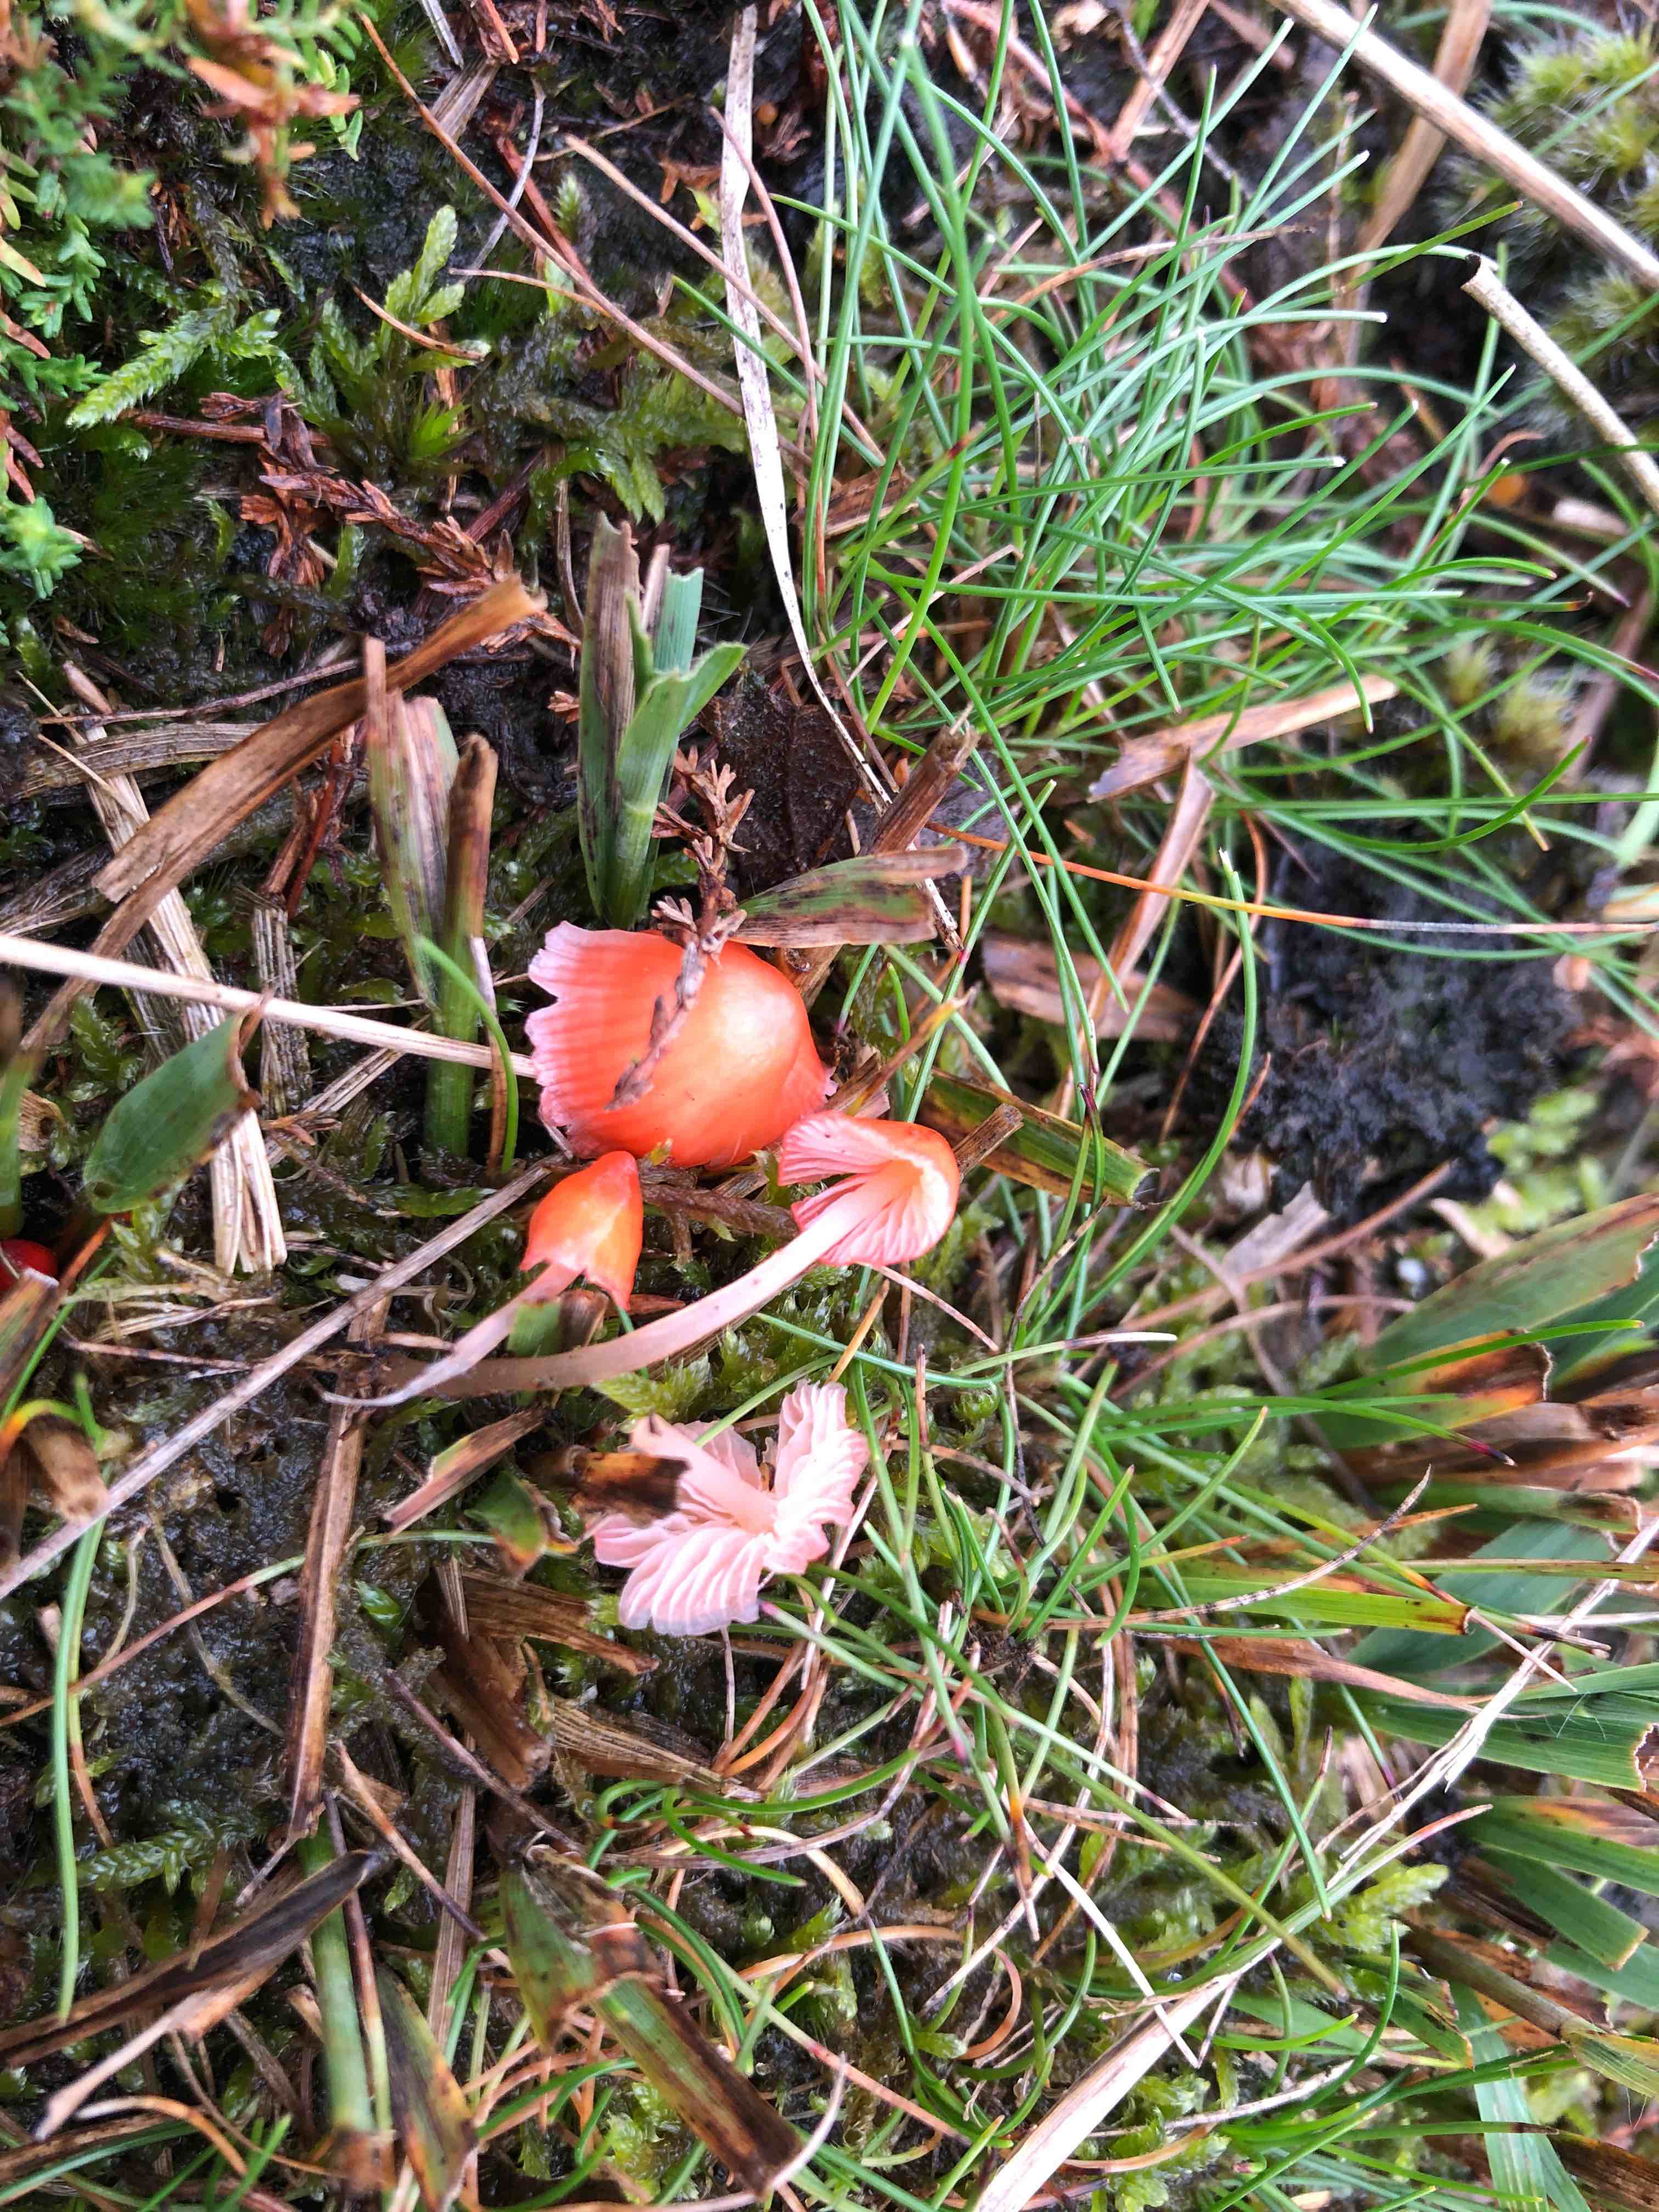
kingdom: Fungi
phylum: Basidiomycota
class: Agaricomycetes
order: Agaricales
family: Mycenaceae
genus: Atheniella
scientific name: Atheniella adonis
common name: rønnerød huesvamp
